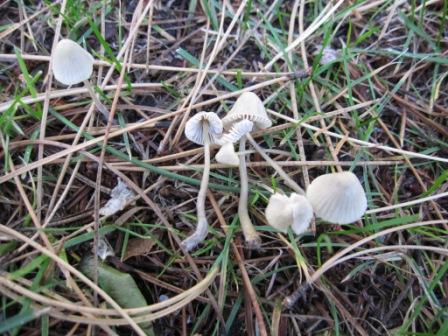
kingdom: Fungi
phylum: Basidiomycota
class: Agaricomycetes
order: Agaricales
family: Mycenaceae
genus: Mycena
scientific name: Mycena citrinomarginata
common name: gulægget huesvamp
